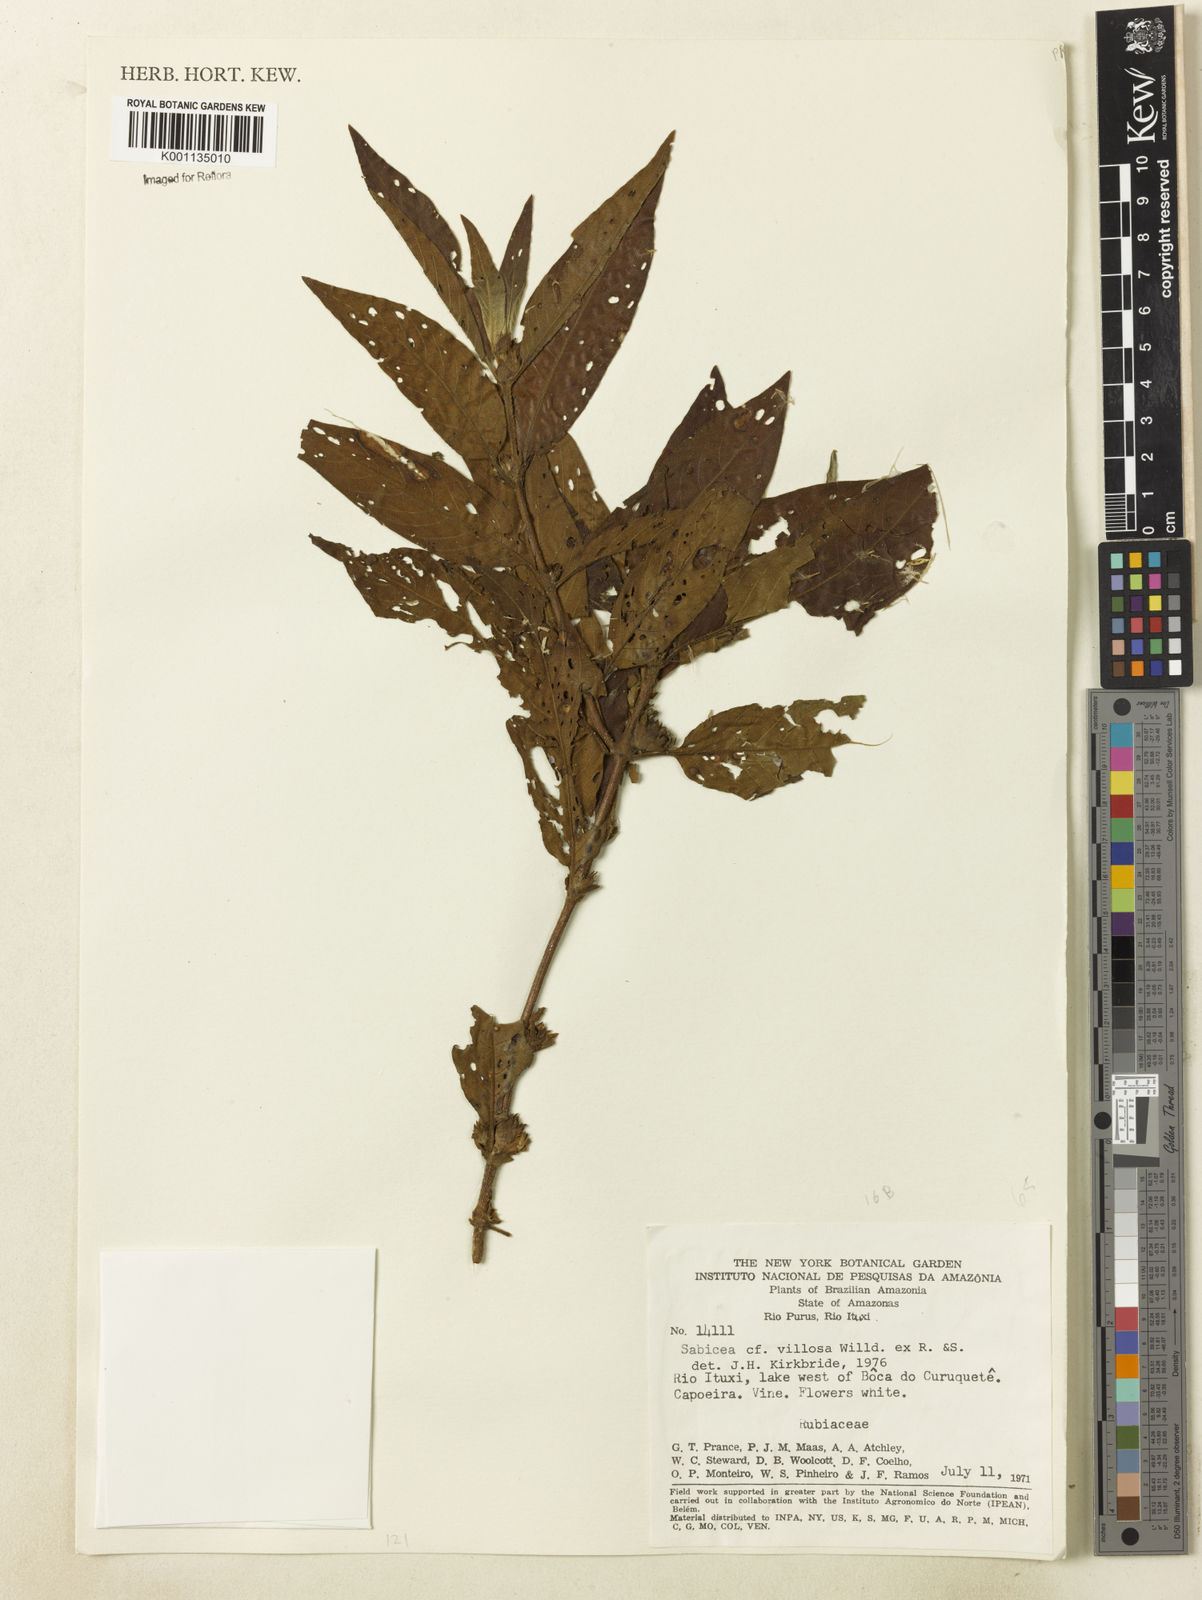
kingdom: Plantae
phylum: Tracheophyta
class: Magnoliopsida
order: Gentianales
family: Rubiaceae
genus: Sabicea
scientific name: Sabicea villosa
